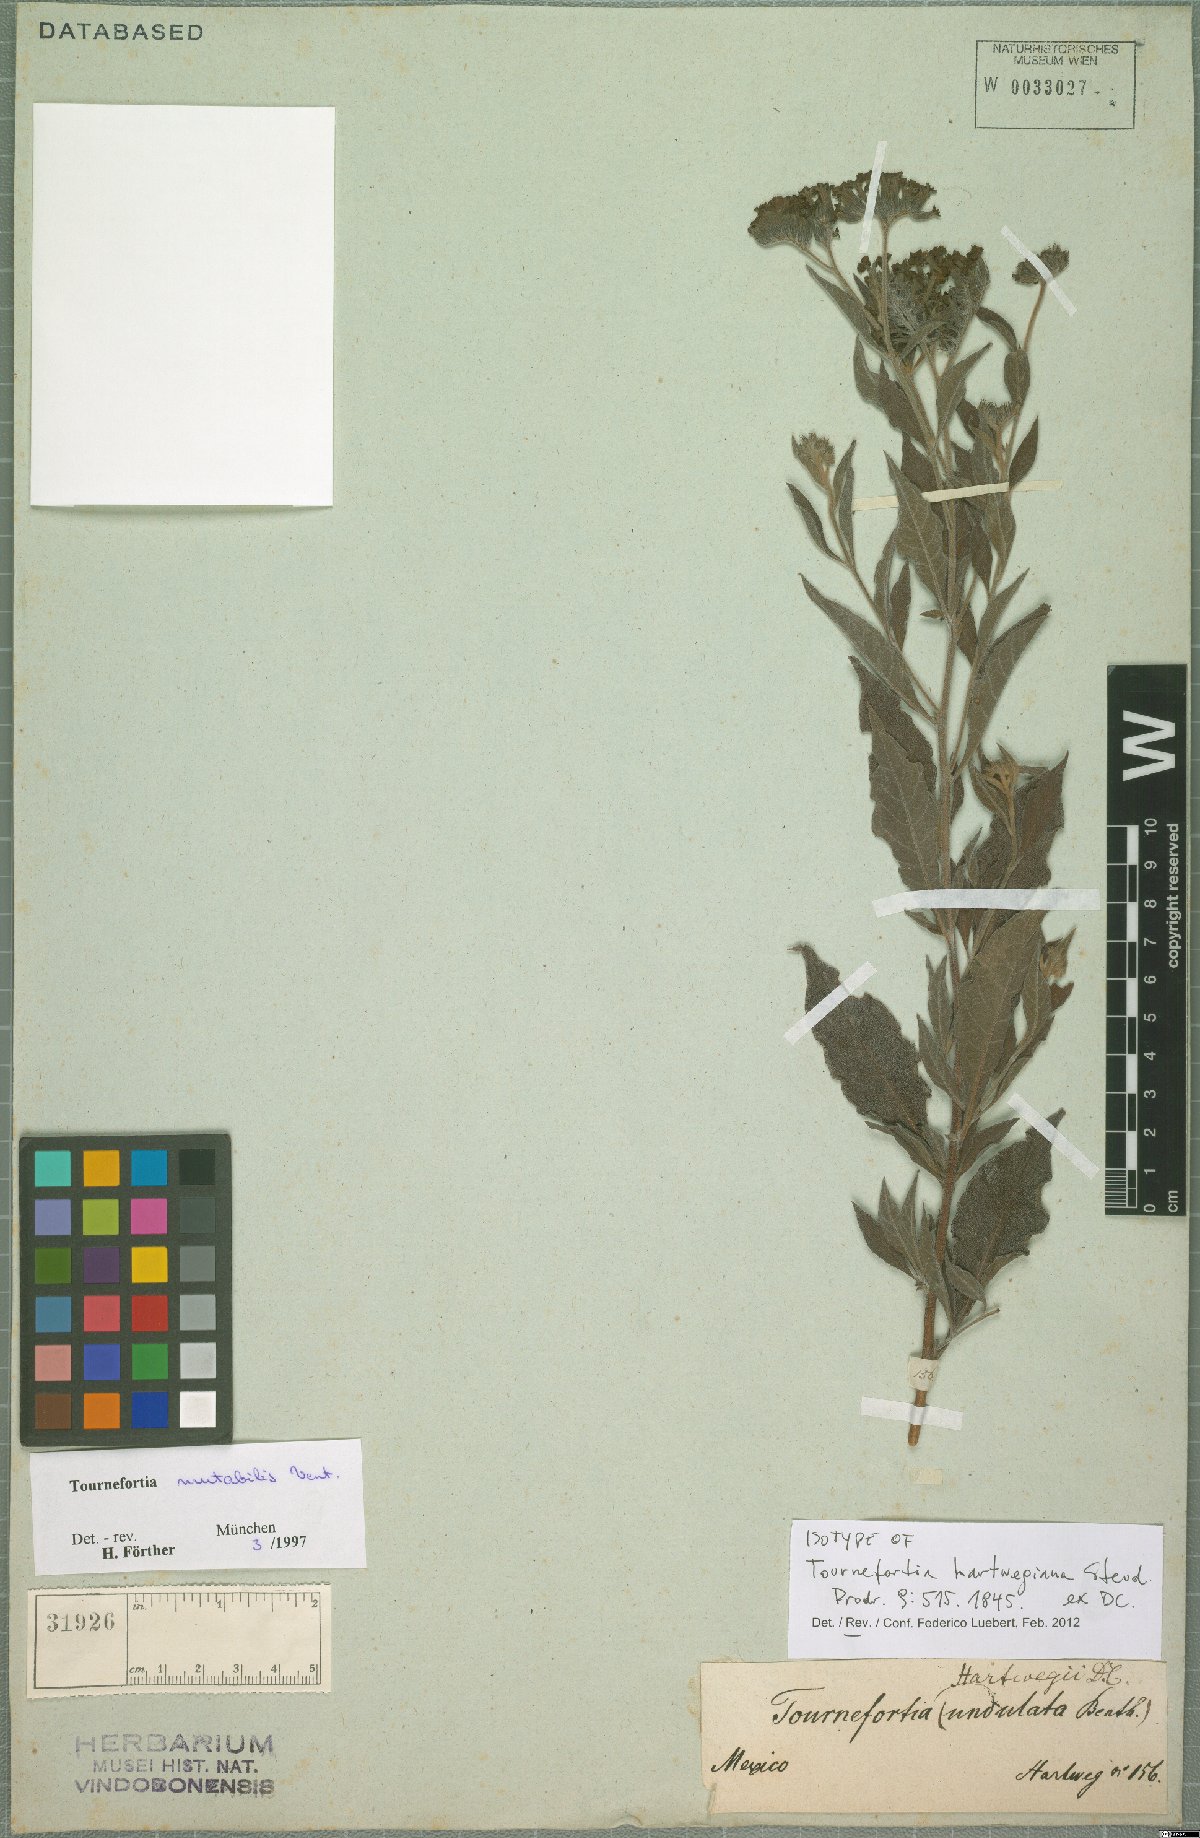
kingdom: Plantae
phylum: Tracheophyta
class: Magnoliopsida
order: Boraginales
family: Heliotropiaceae
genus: Tournefortia
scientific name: Tournefortia mutabilis
